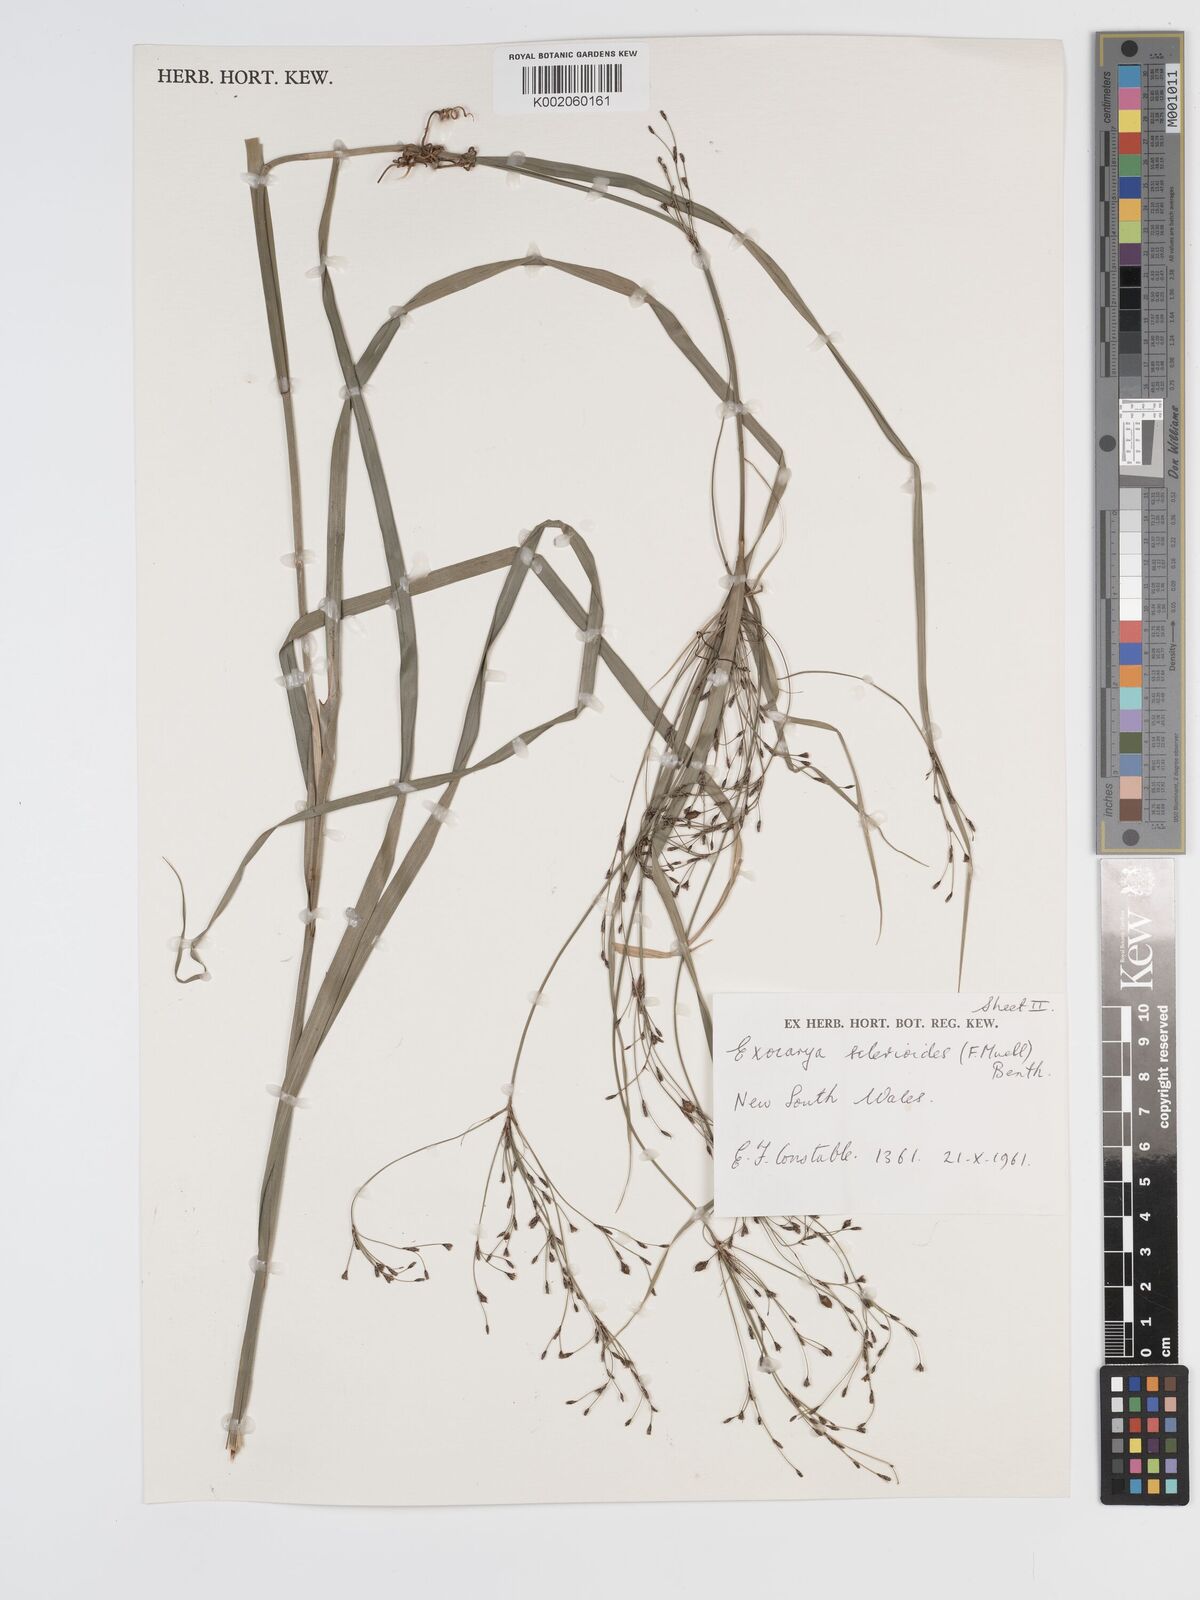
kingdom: Plantae
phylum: Tracheophyta
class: Liliopsida
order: Poales
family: Cyperaceae
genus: Exocarya
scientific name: Exocarya sclerioides
